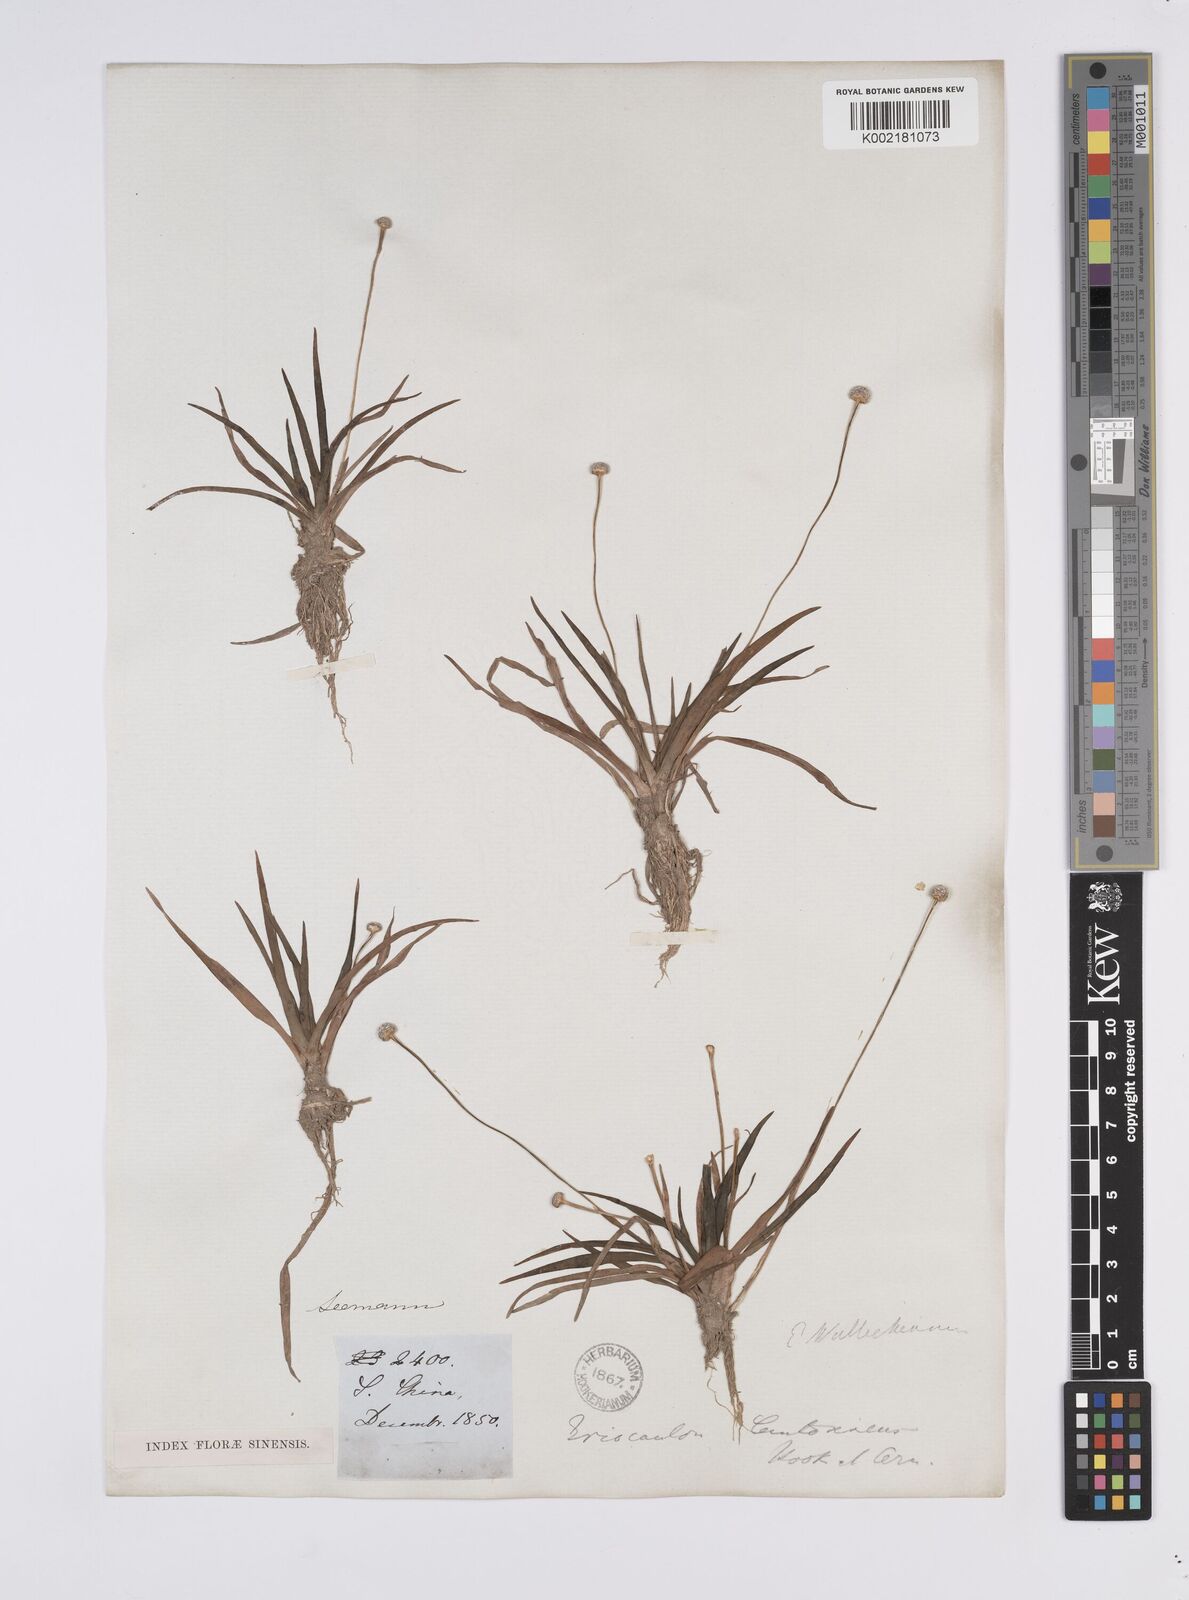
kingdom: Plantae
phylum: Tracheophyta
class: Liliopsida
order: Poales
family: Eriocaulaceae
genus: Eriocaulon
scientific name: Eriocaulon sexangulare
